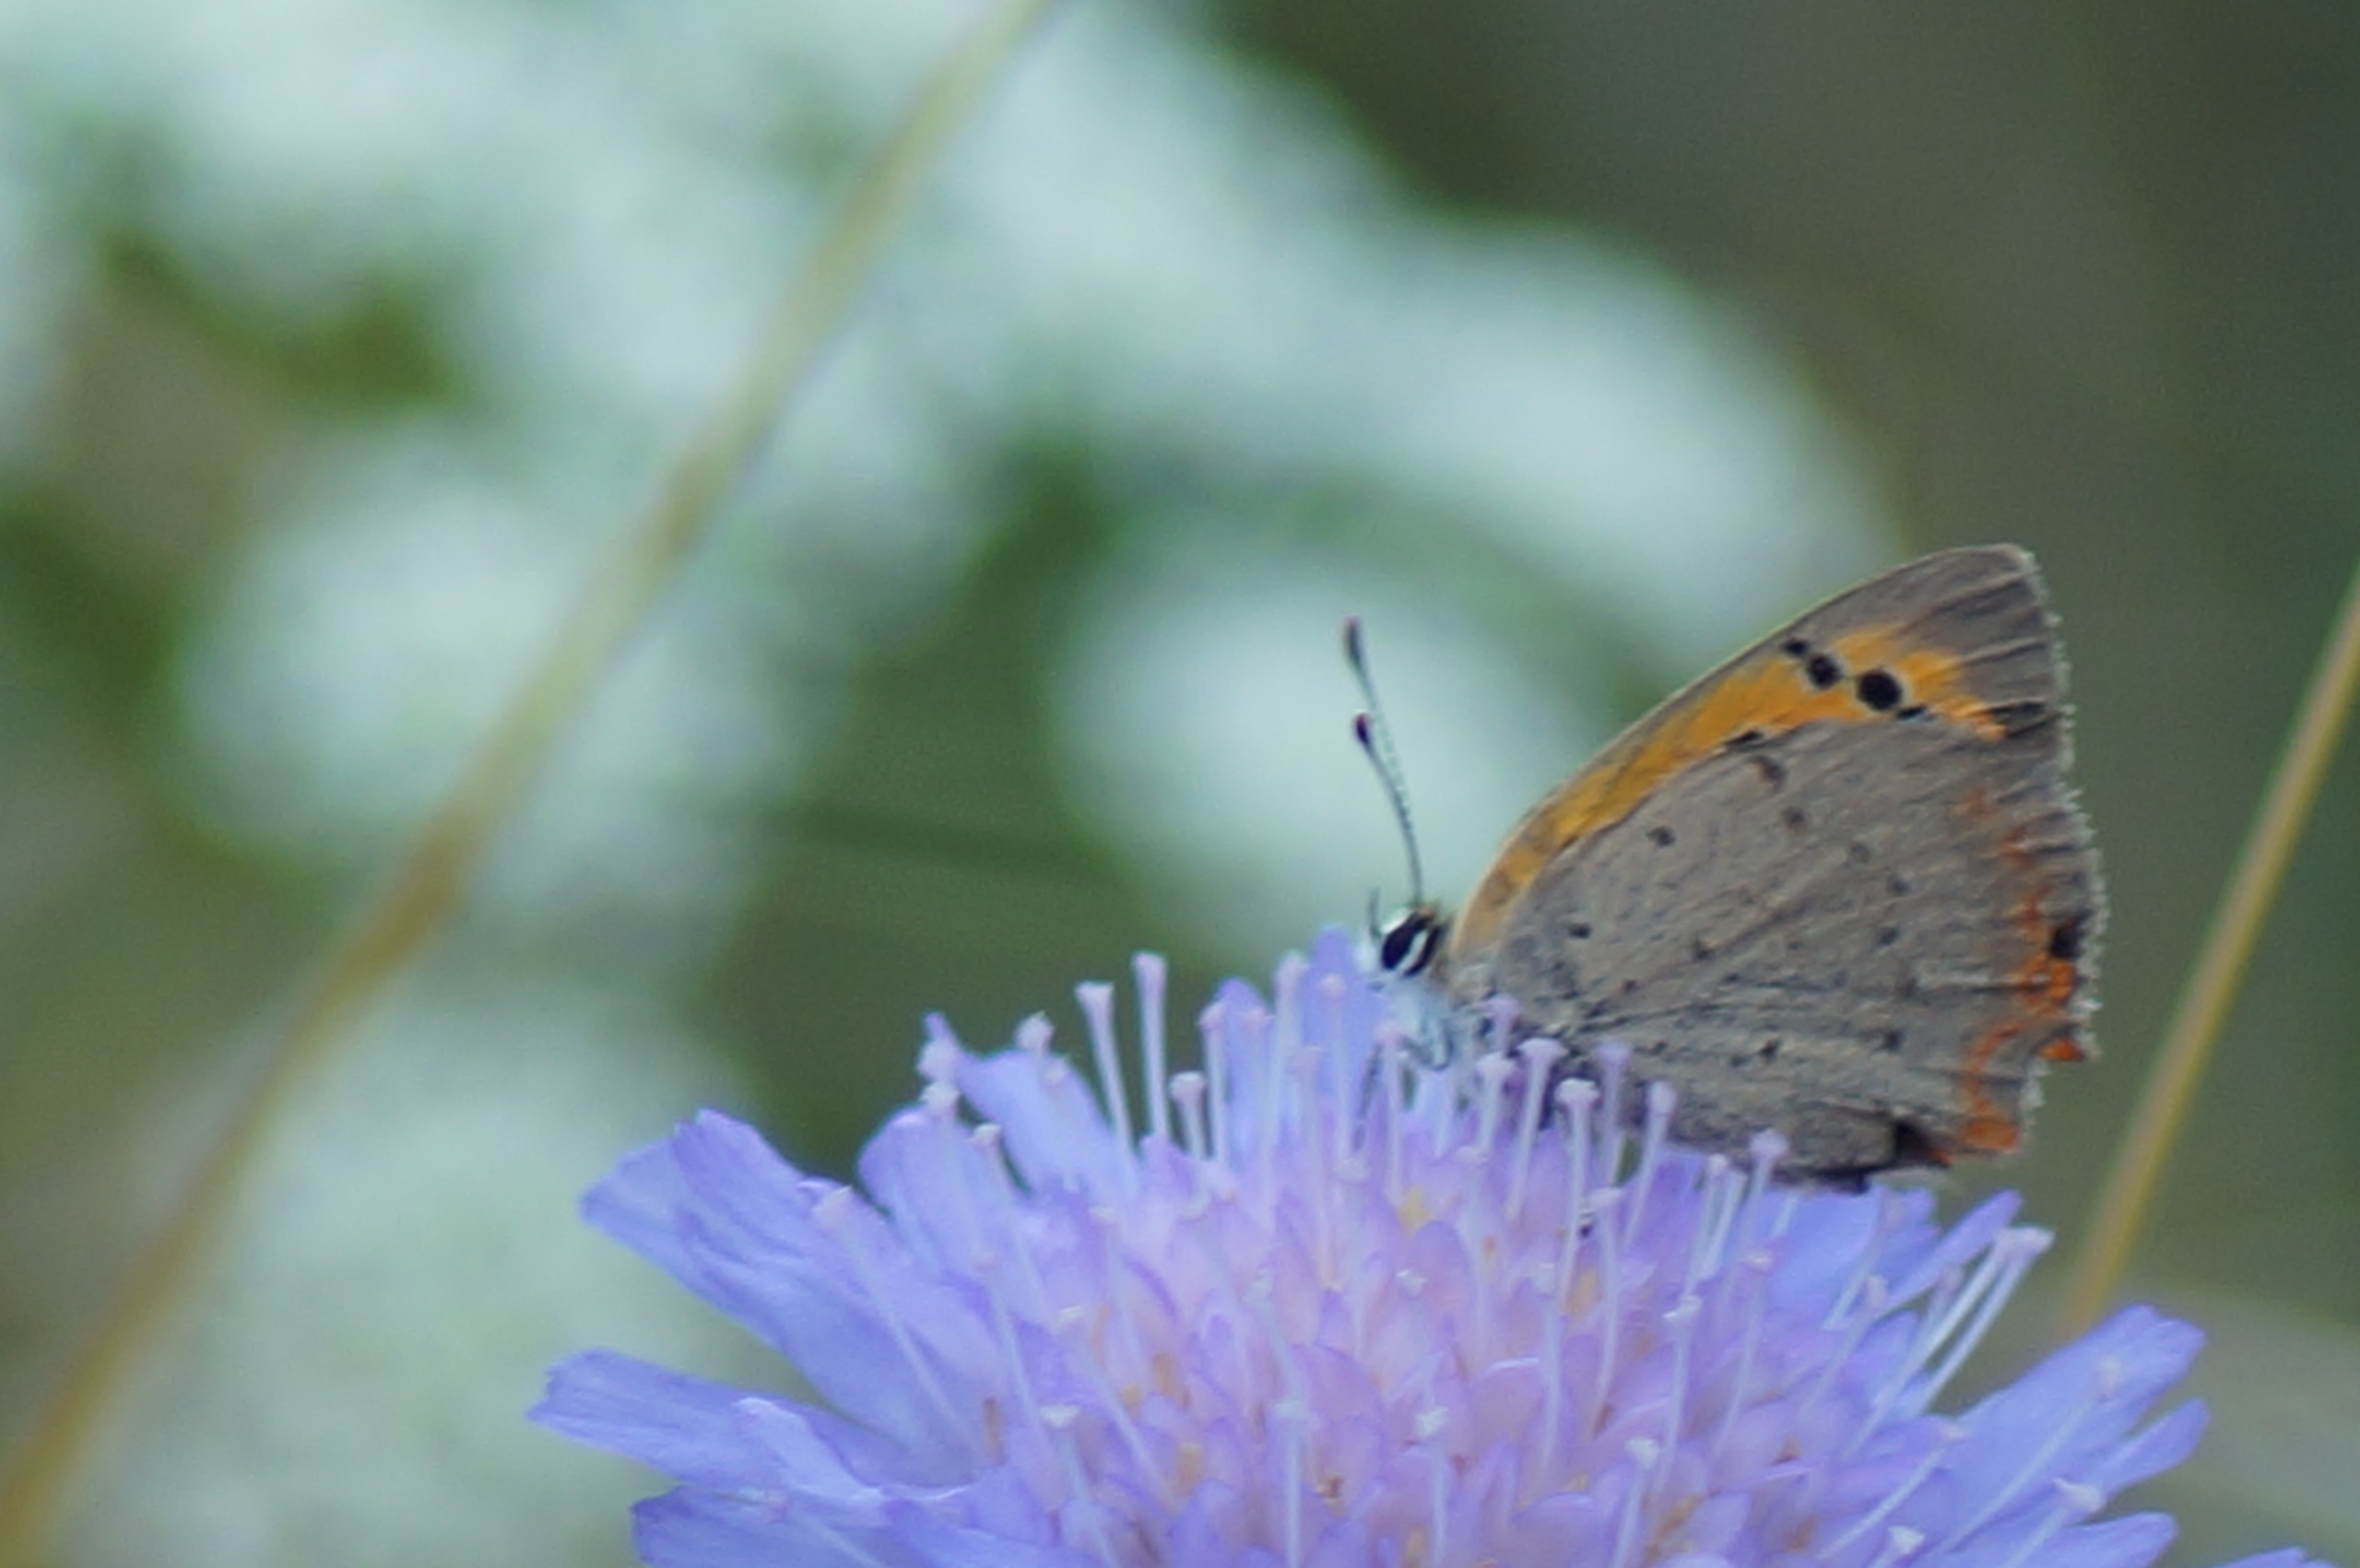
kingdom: Animalia
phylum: Arthropoda
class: Insecta
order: Lepidoptera
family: Lycaenidae
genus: Lycaena
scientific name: Lycaena phlaeas
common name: Lille ildfugl
